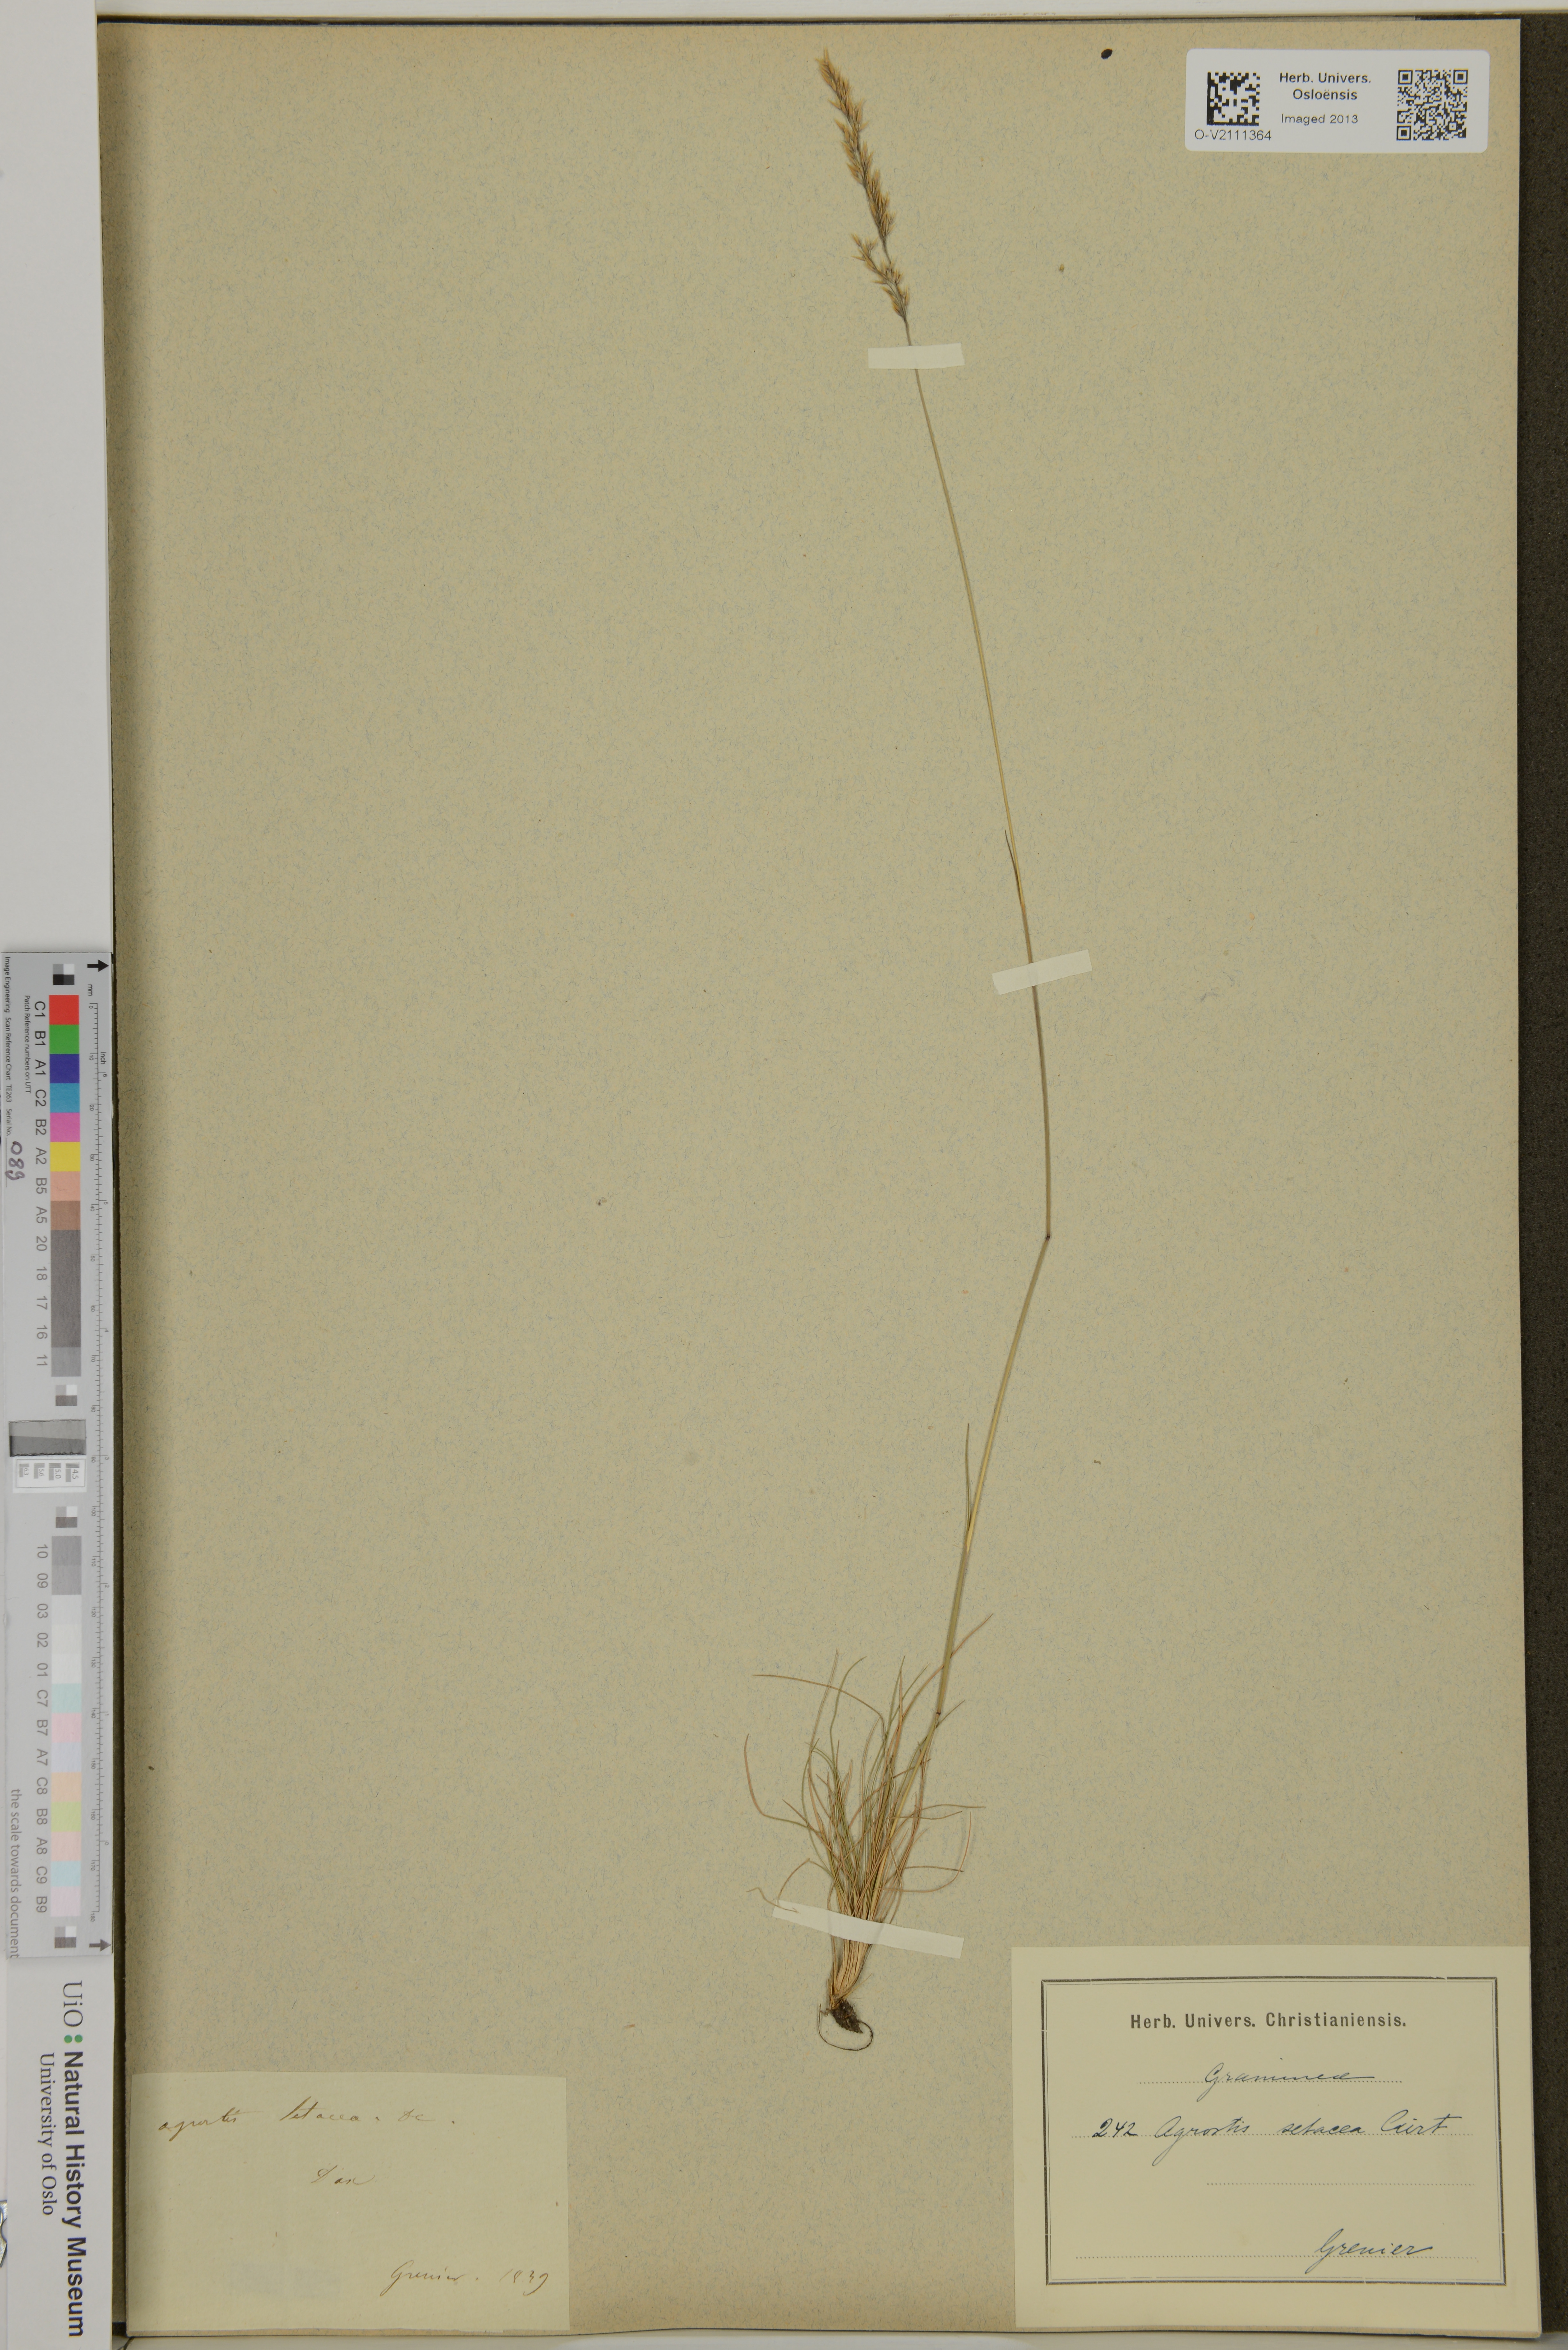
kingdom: Plantae
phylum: Tracheophyta
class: Liliopsida
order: Poales
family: Poaceae
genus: Agrostis
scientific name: Agrostis rupestris
